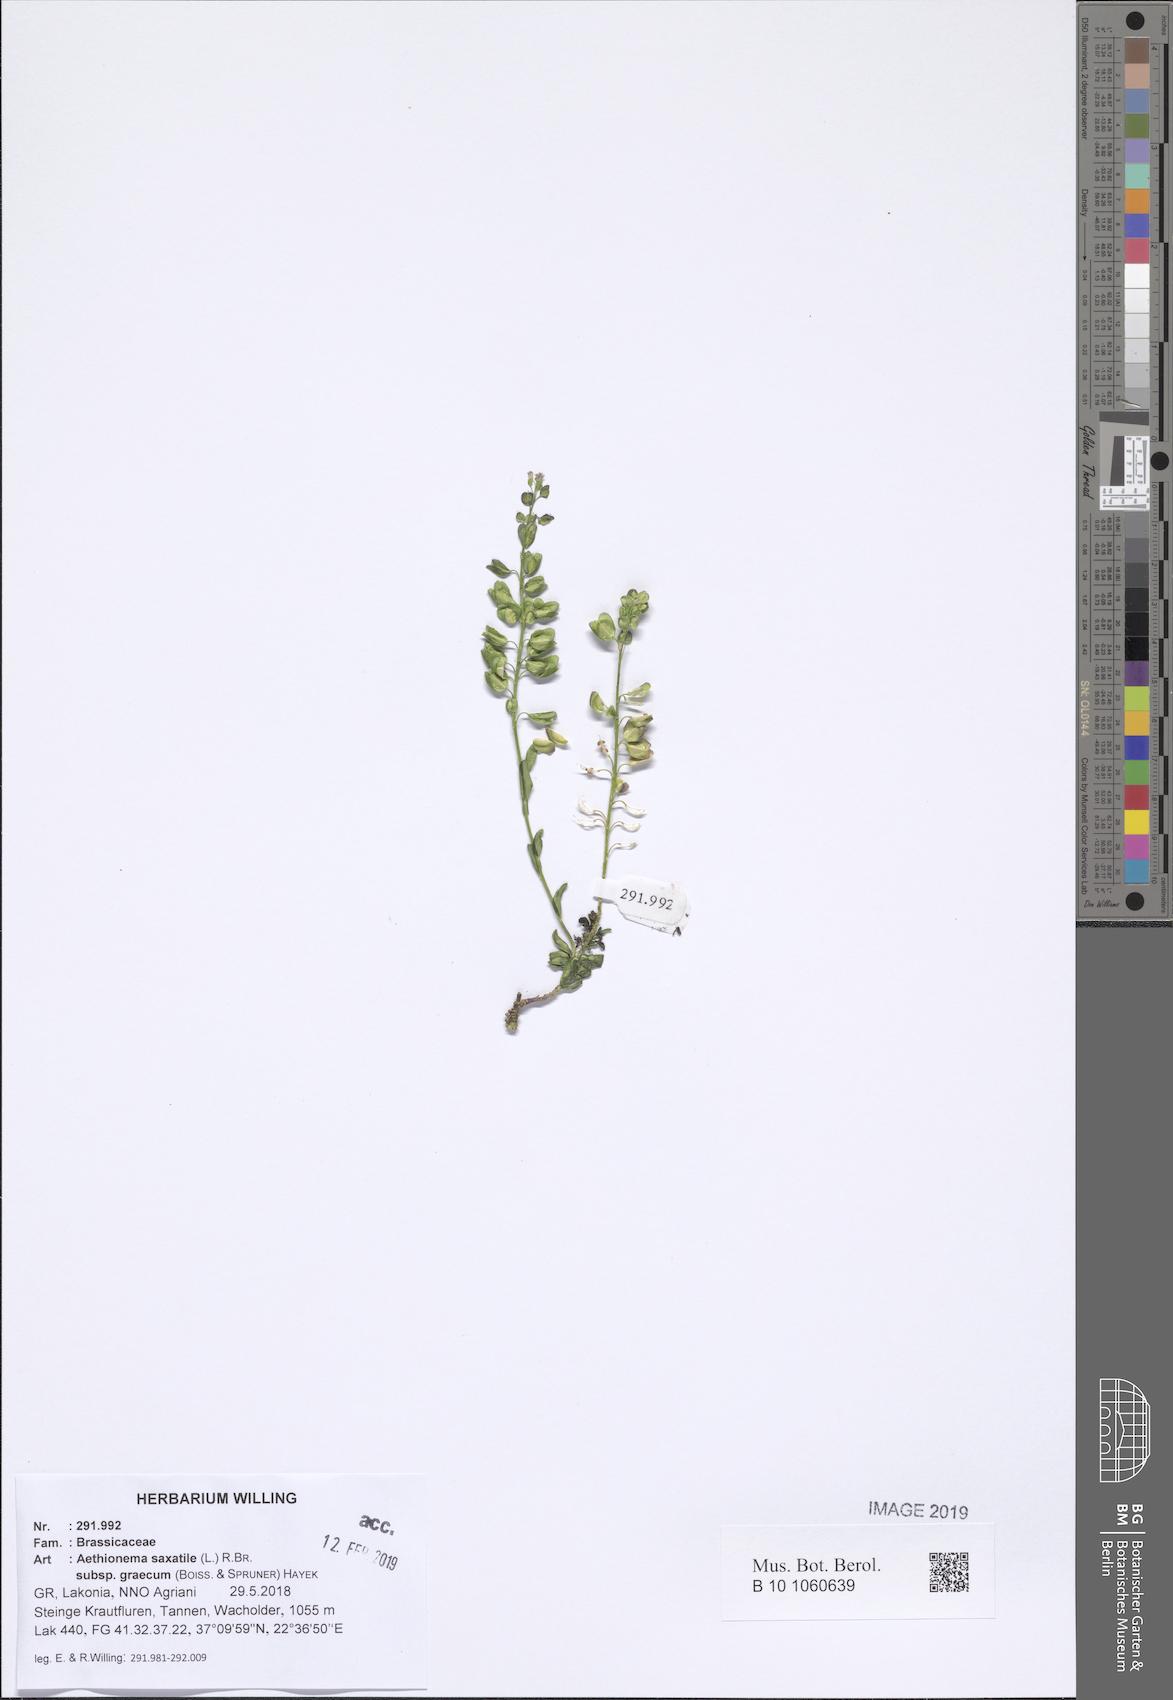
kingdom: Plantae
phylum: Tracheophyta
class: Magnoliopsida
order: Brassicales
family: Brassicaceae
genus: Aethionema
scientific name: Aethionema saxatile
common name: Burnt candytuft
